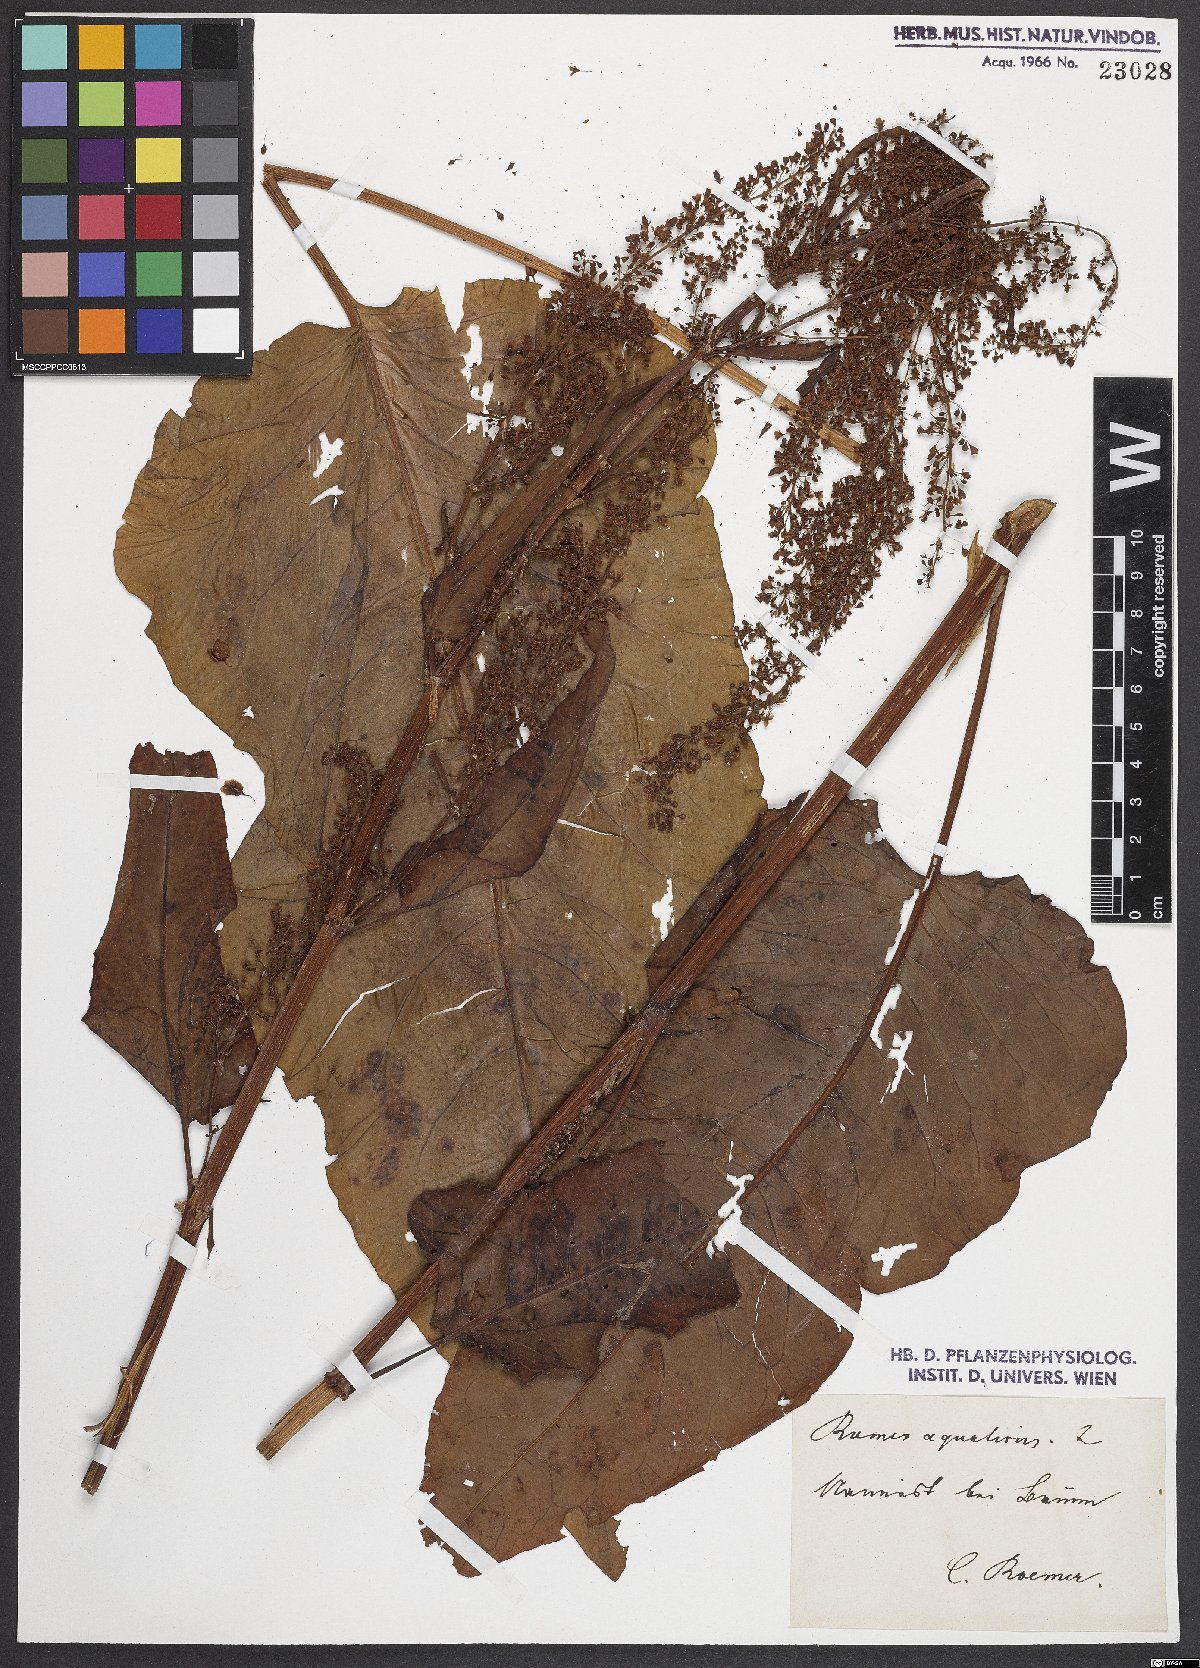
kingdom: Plantae
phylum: Tracheophyta
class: Magnoliopsida
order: Caryophyllales
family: Polygonaceae
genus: Rumex
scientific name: Rumex aquaticus
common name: Scottish dock
